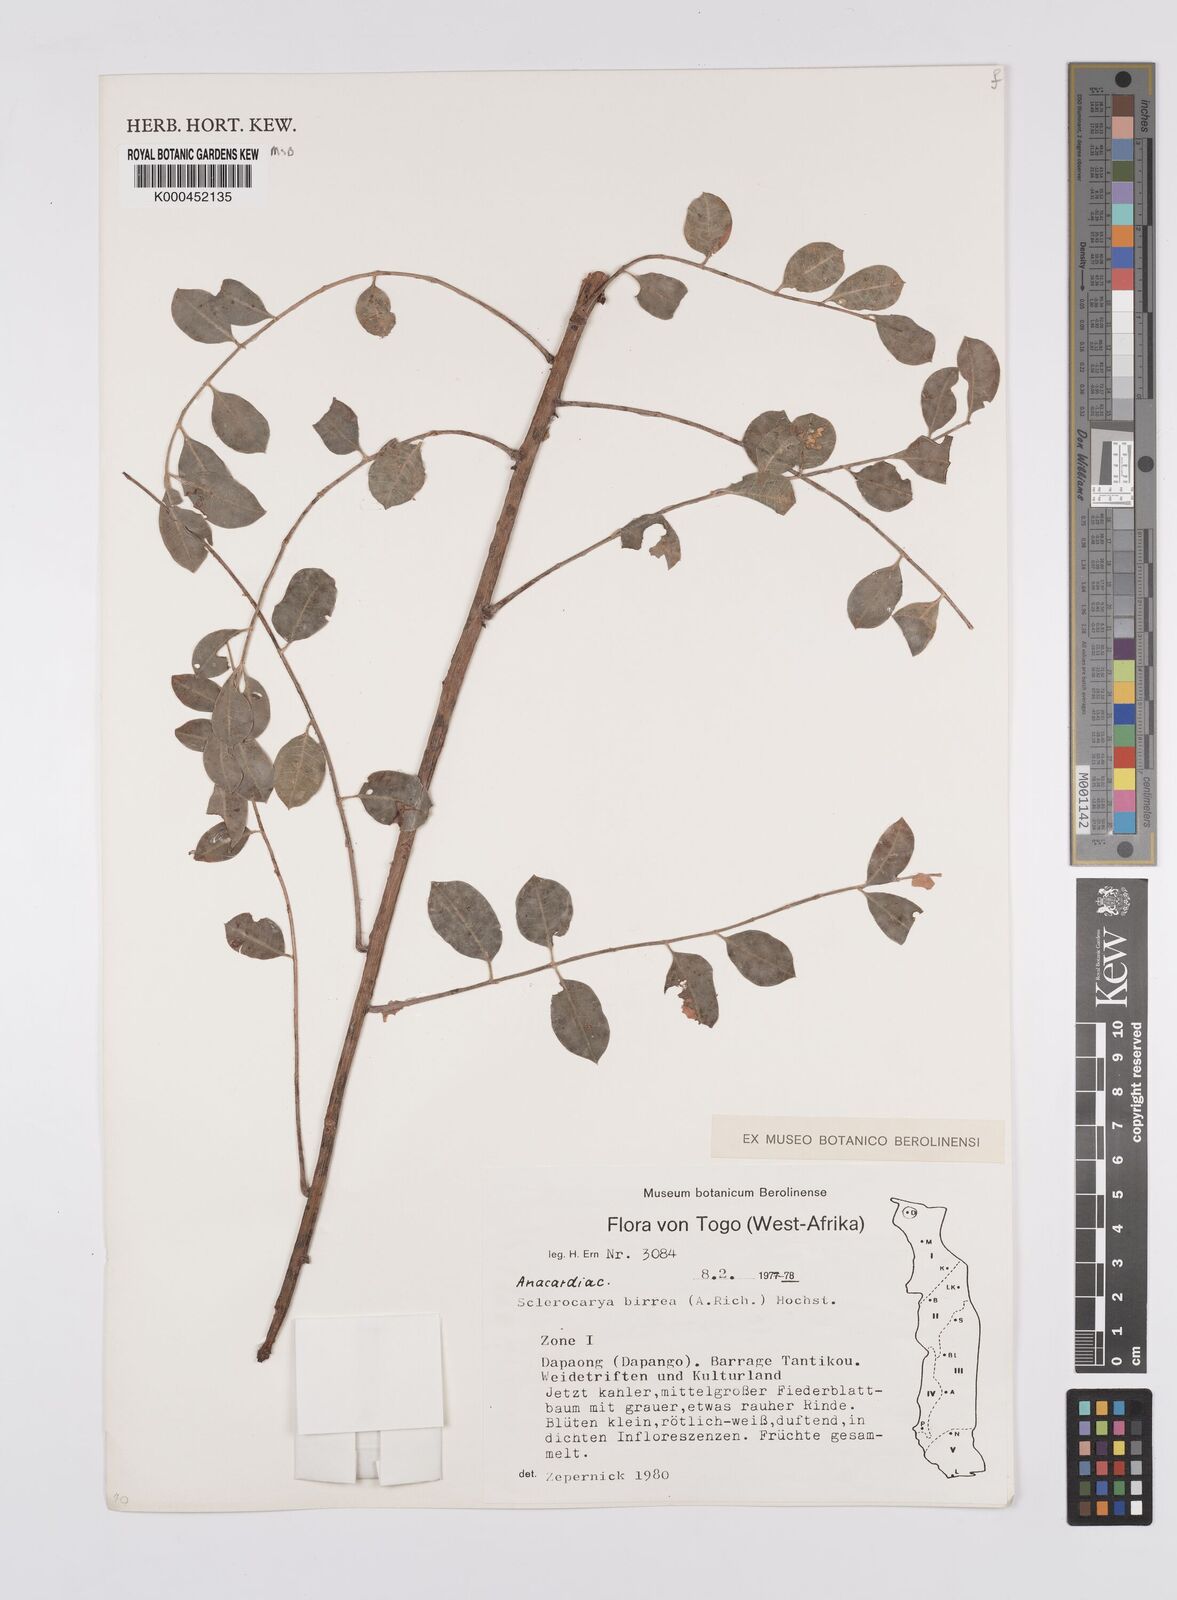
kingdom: Plantae
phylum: Tracheophyta
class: Magnoliopsida
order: Sapindales
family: Anacardiaceae
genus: Sclerocarya
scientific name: Sclerocarya birrea
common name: Marula
